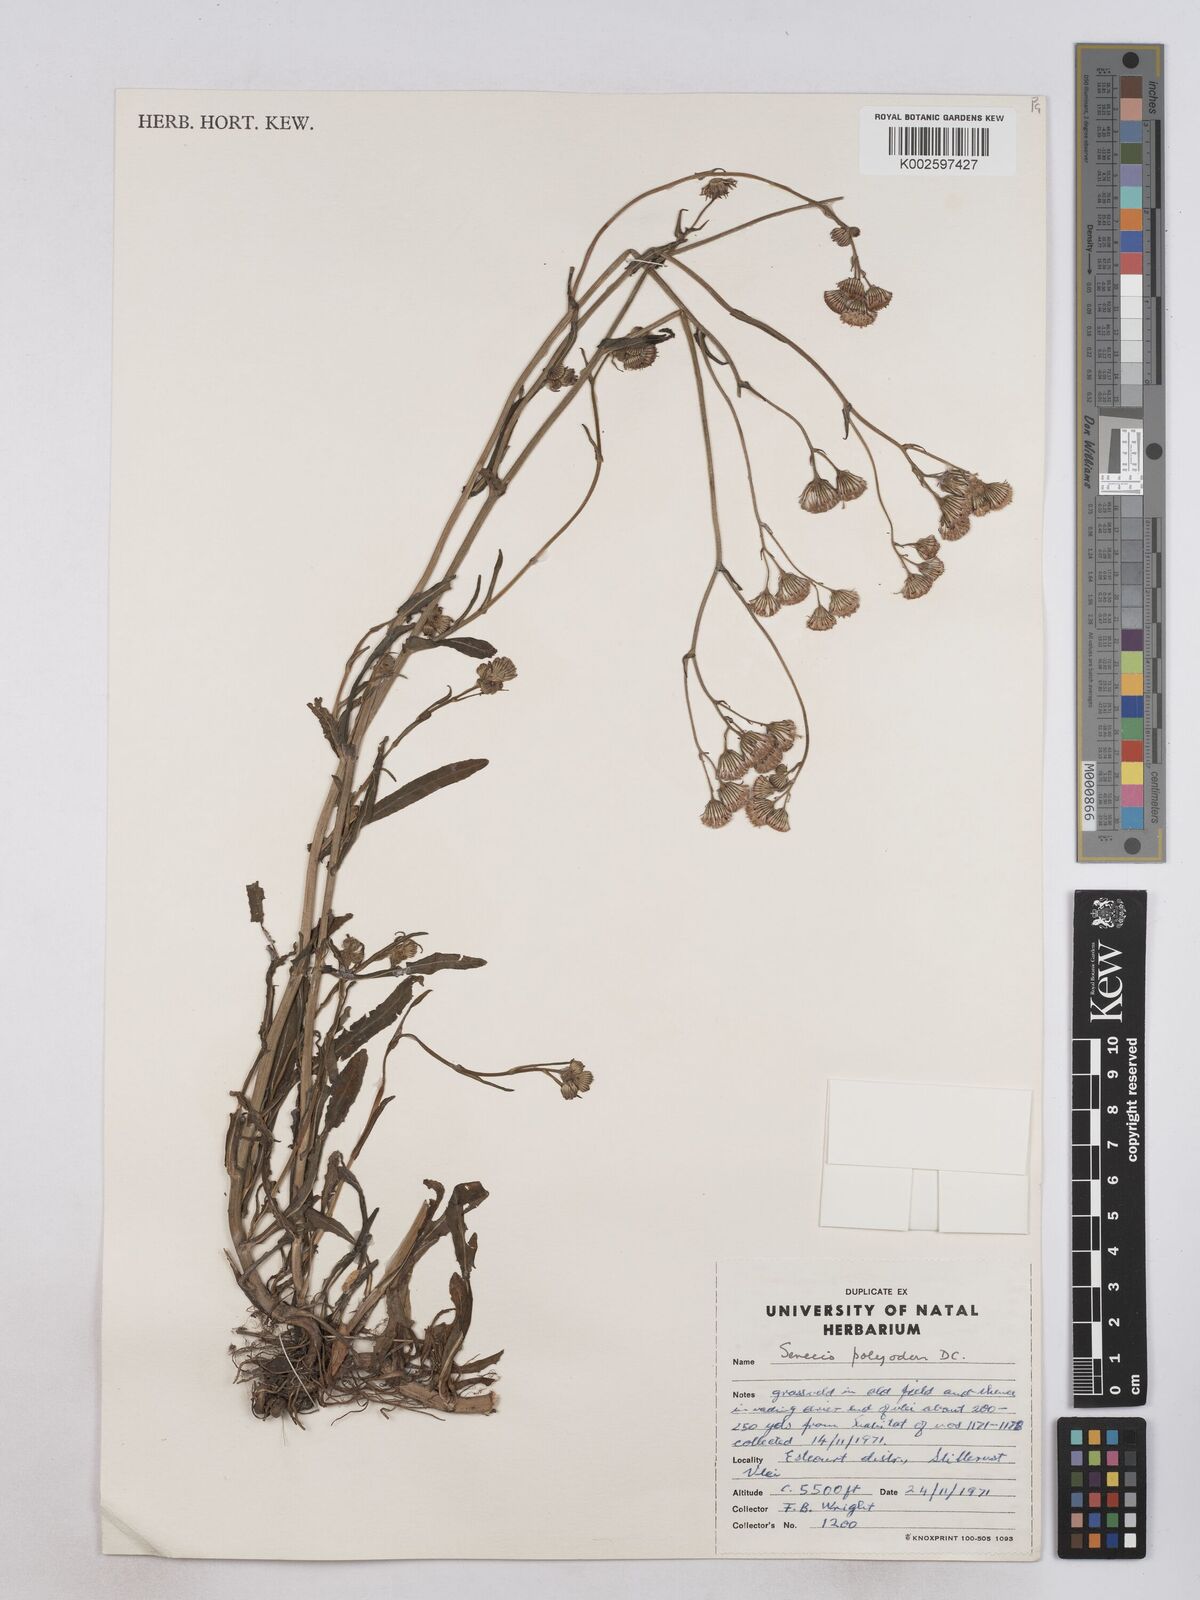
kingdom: Plantae
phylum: Tracheophyta
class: Magnoliopsida
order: Asterales
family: Asteraceae
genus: Senecio
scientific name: Senecio polyodon
